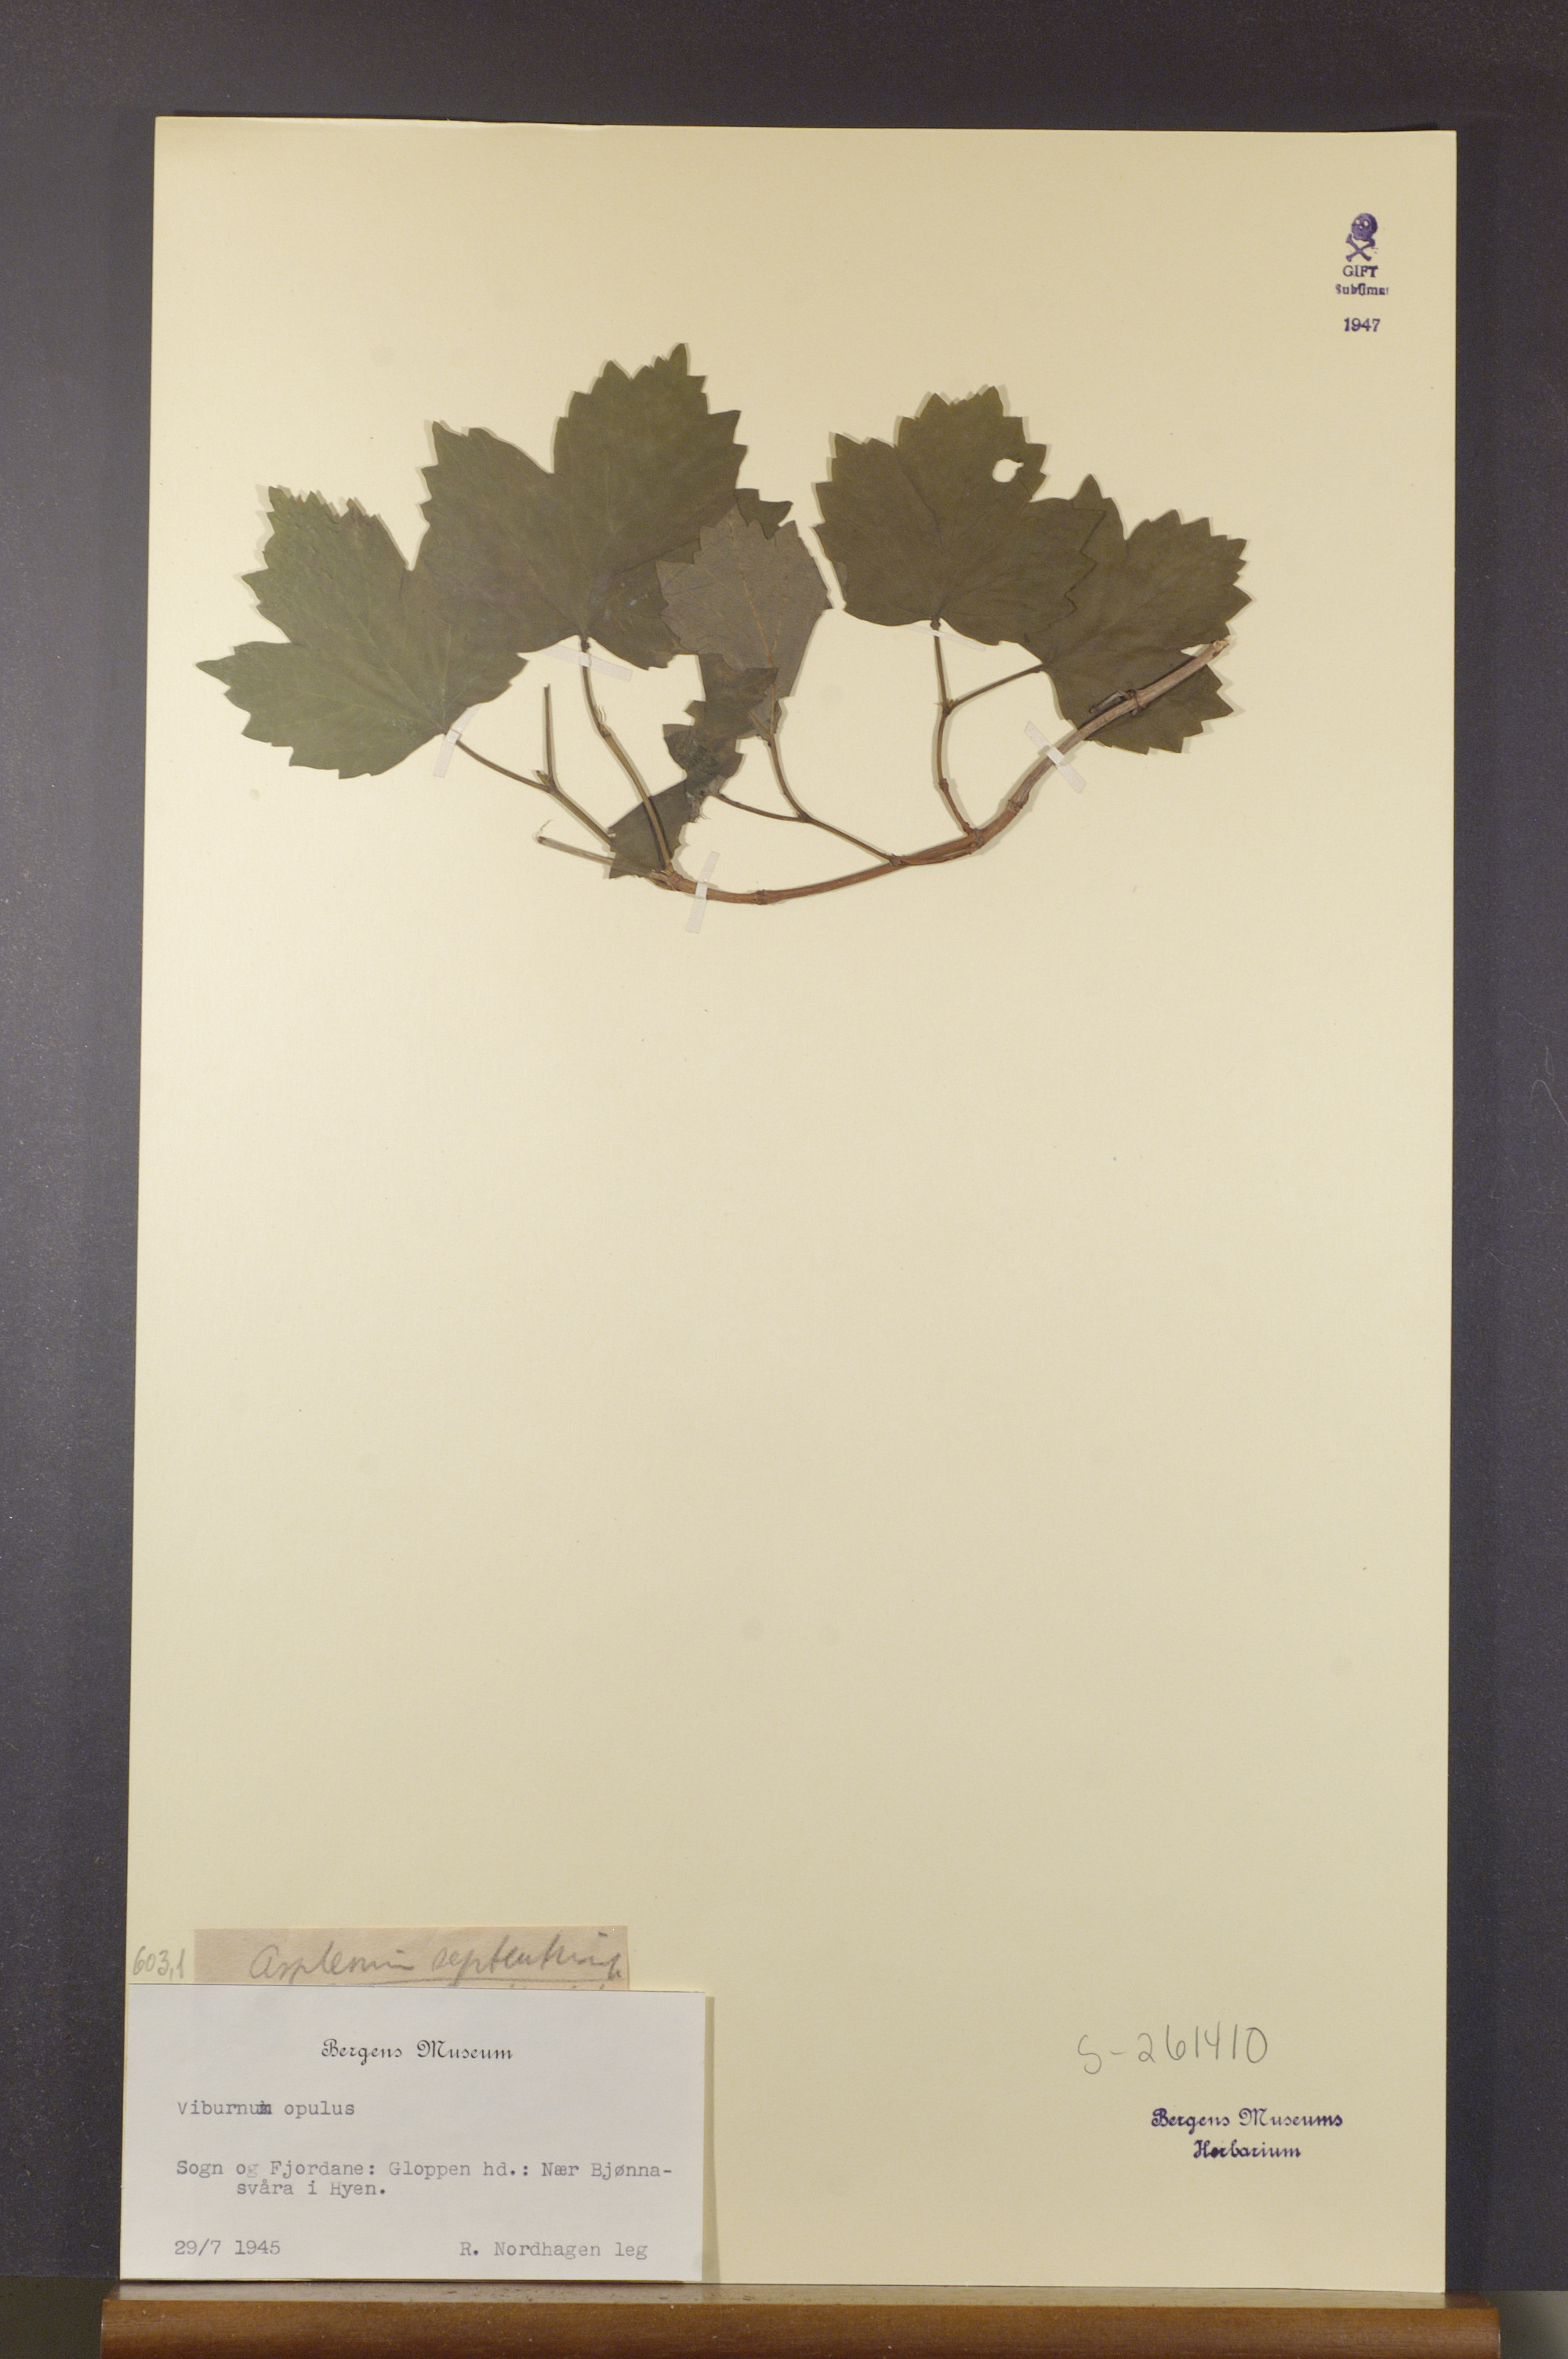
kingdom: Plantae
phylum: Tracheophyta
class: Magnoliopsida
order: Dipsacales
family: Viburnaceae
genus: Viburnum
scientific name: Viburnum opulus
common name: Guelder-rose
